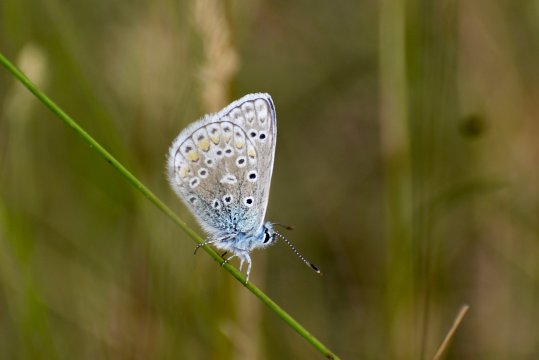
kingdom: Animalia
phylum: Arthropoda
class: Insecta
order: Lepidoptera
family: Lycaenidae
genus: Polyommatus
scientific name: Polyommatus icarus
